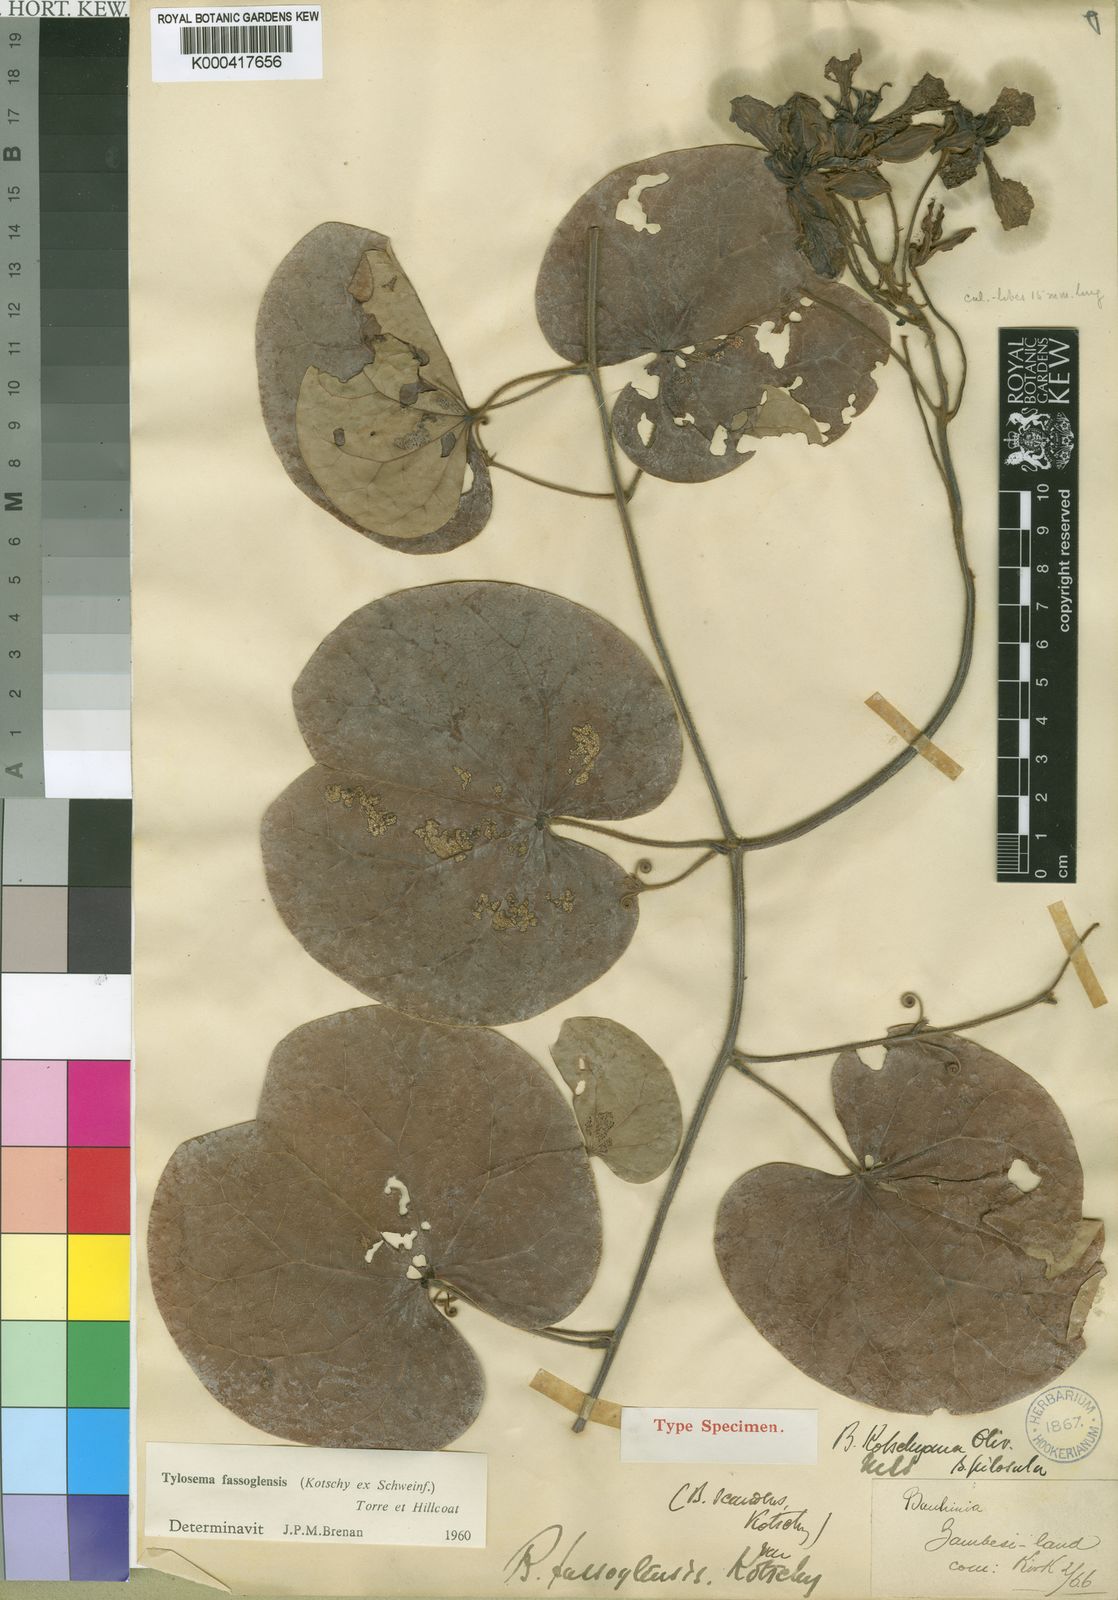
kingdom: Plantae
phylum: Tracheophyta
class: Magnoliopsida
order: Fabales
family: Fabaceae
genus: Tylosema
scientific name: Tylosema fassoglense
